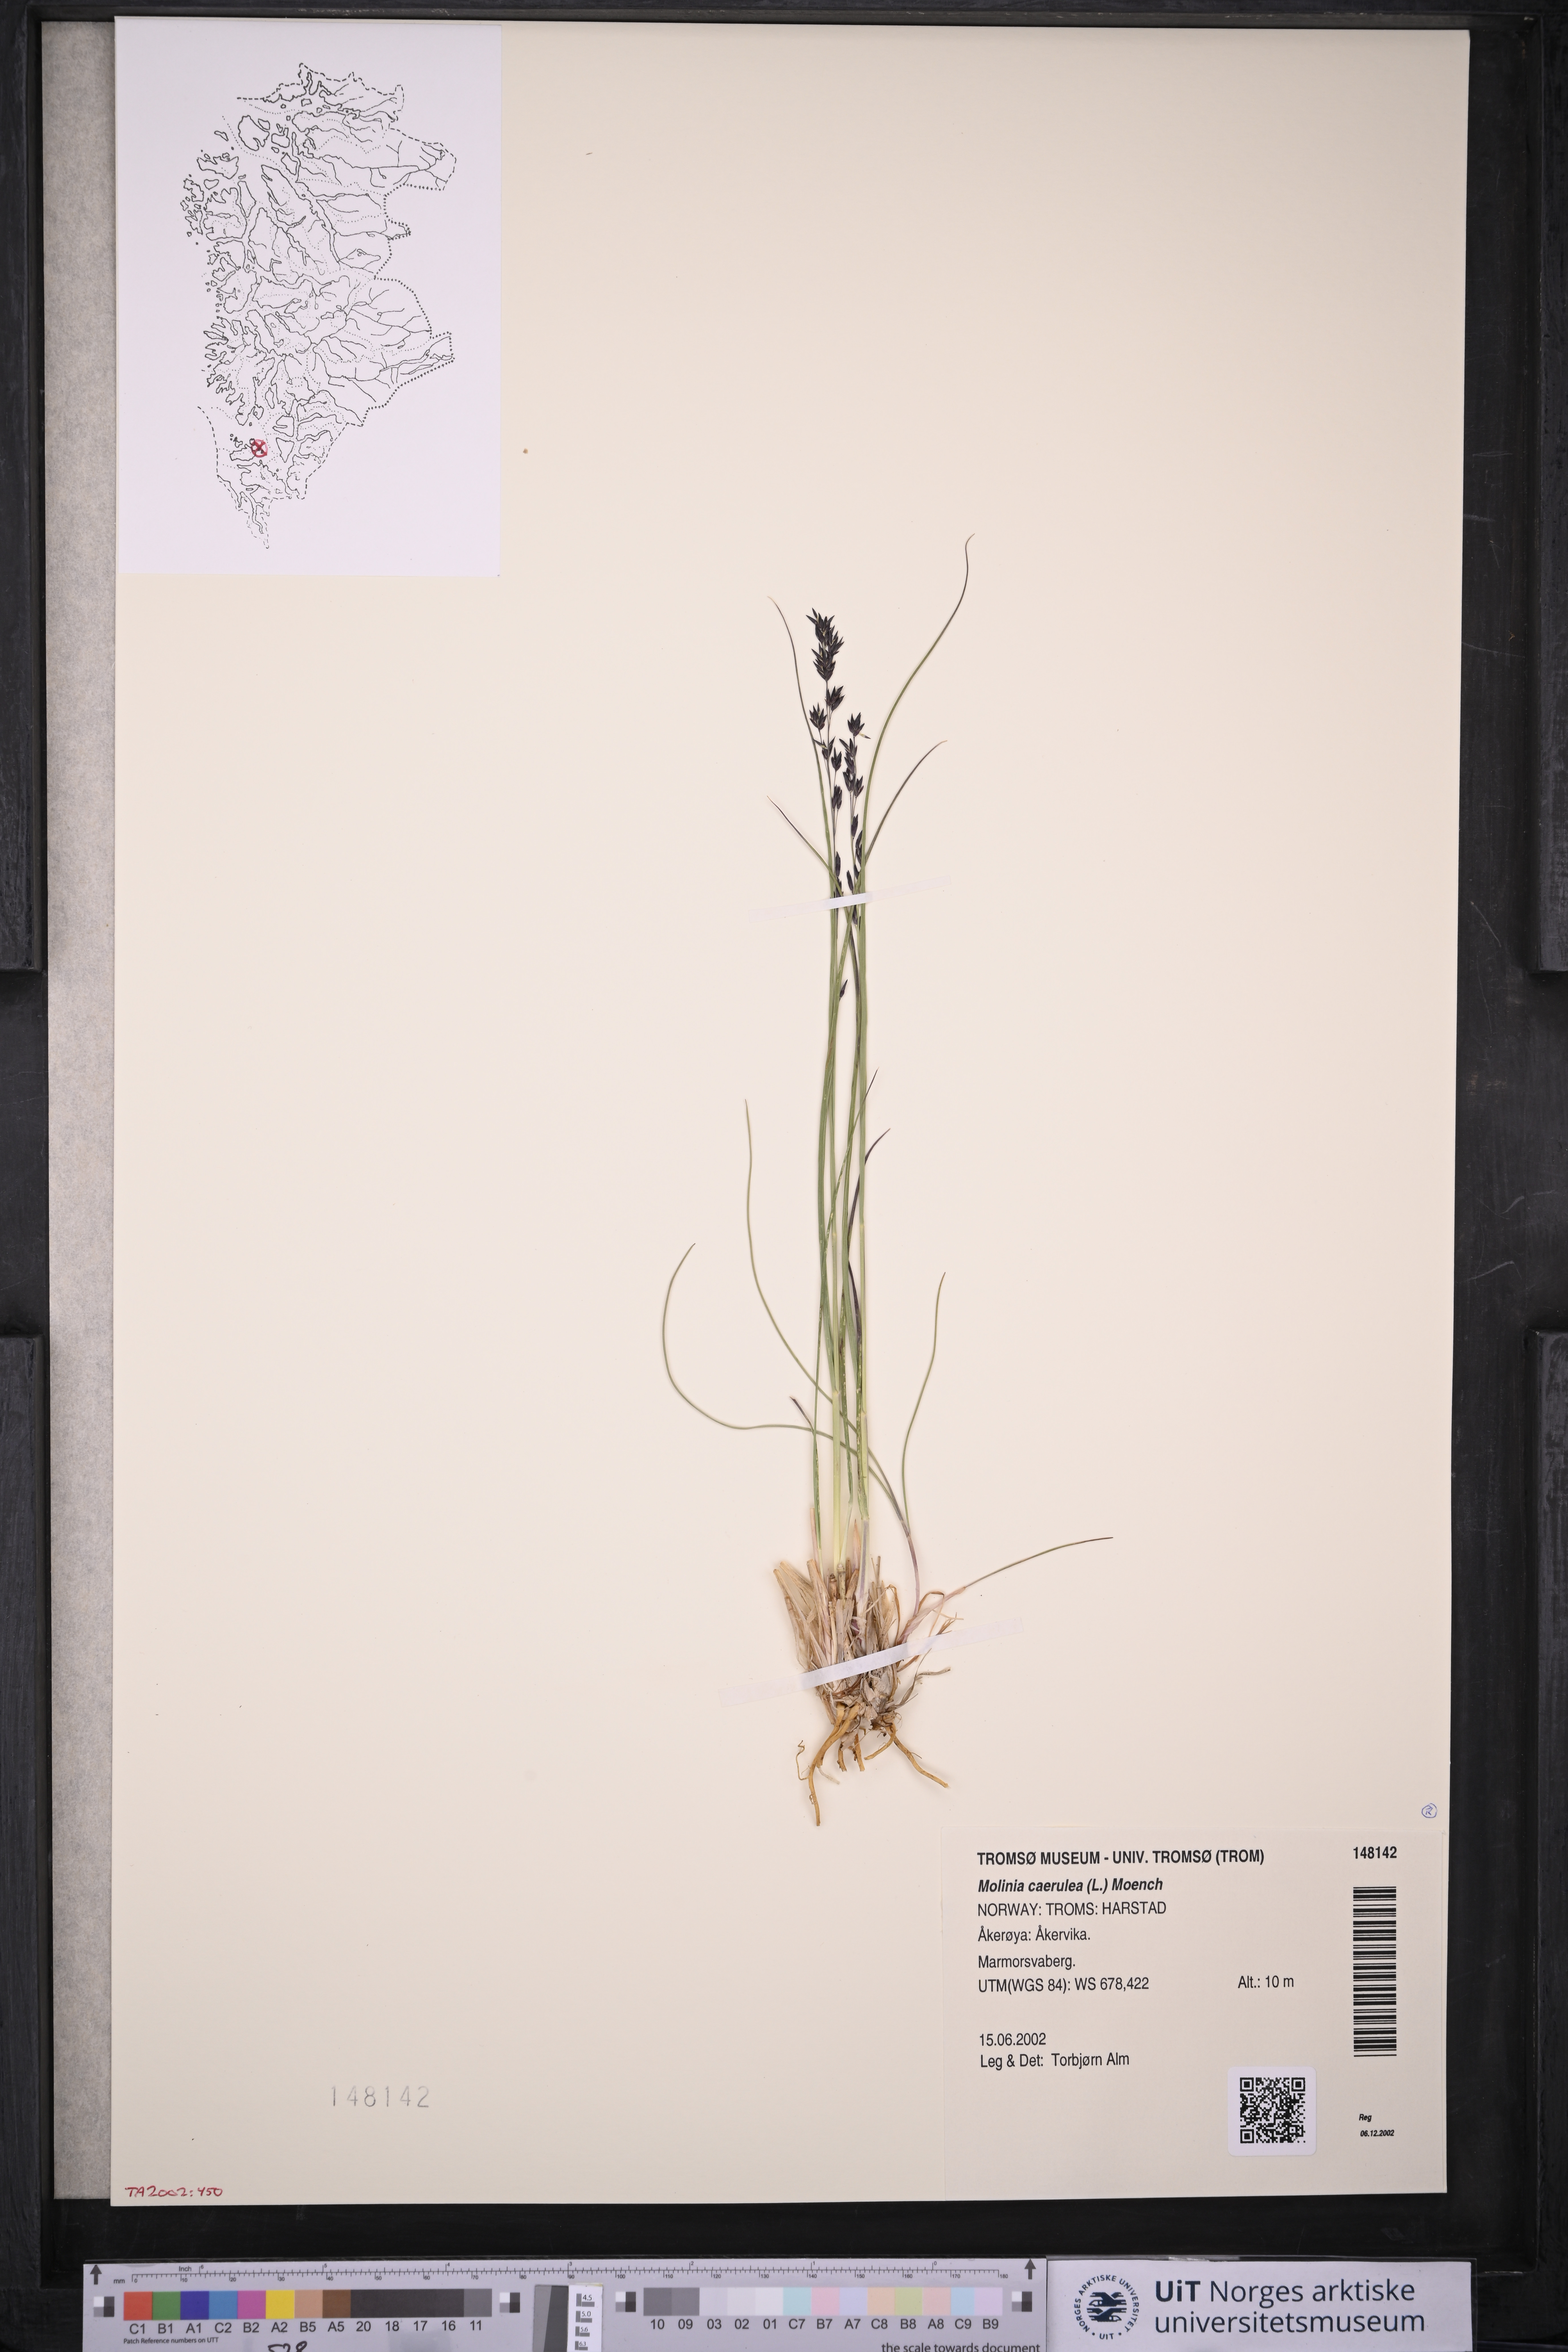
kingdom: Plantae
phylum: Tracheophyta
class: Liliopsida
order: Poales
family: Poaceae
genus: Molinia
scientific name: Molinia caerulea
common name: Purple moor-grass
